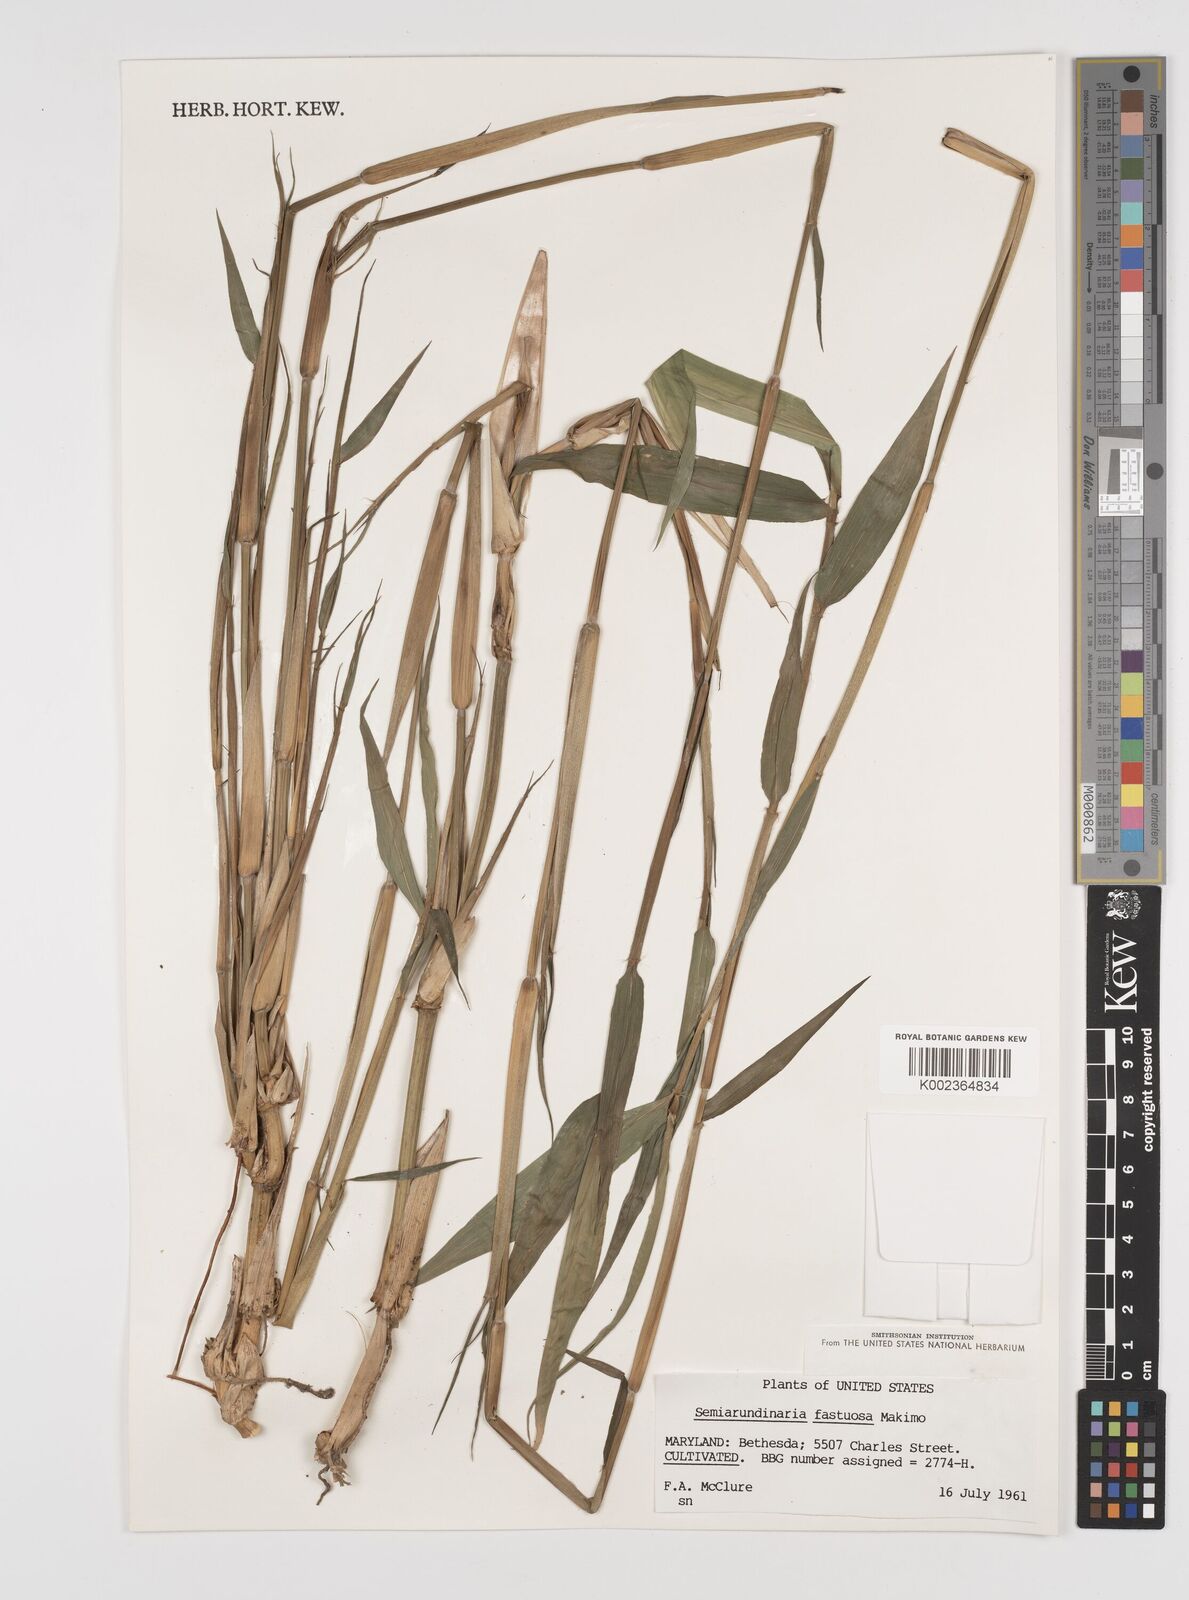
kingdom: Plantae
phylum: Tracheophyta
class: Liliopsida
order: Poales
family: Poaceae
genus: Semiarundinaria
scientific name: Semiarundinaria fastuosa
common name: Narihira bamboo
